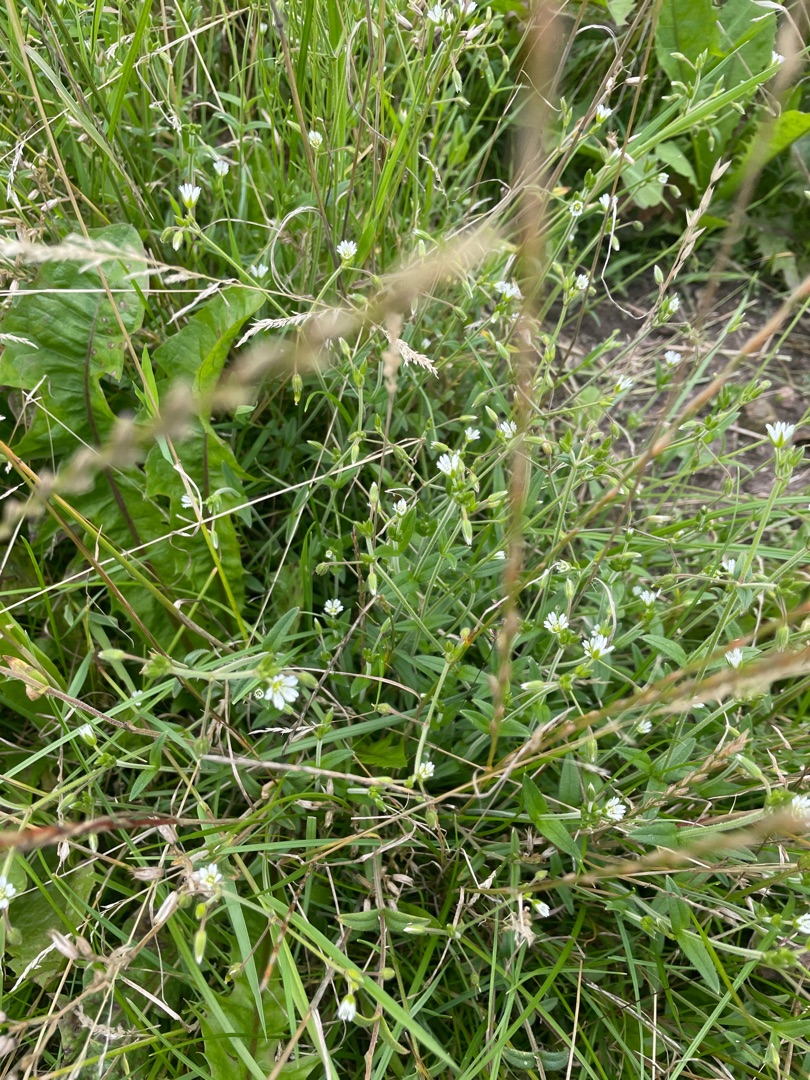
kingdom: Plantae
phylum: Tracheophyta
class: Magnoliopsida
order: Caryophyllales
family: Caryophyllaceae
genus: Cerastium
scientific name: Cerastium fontanum
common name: Almindelig hønsetarm
